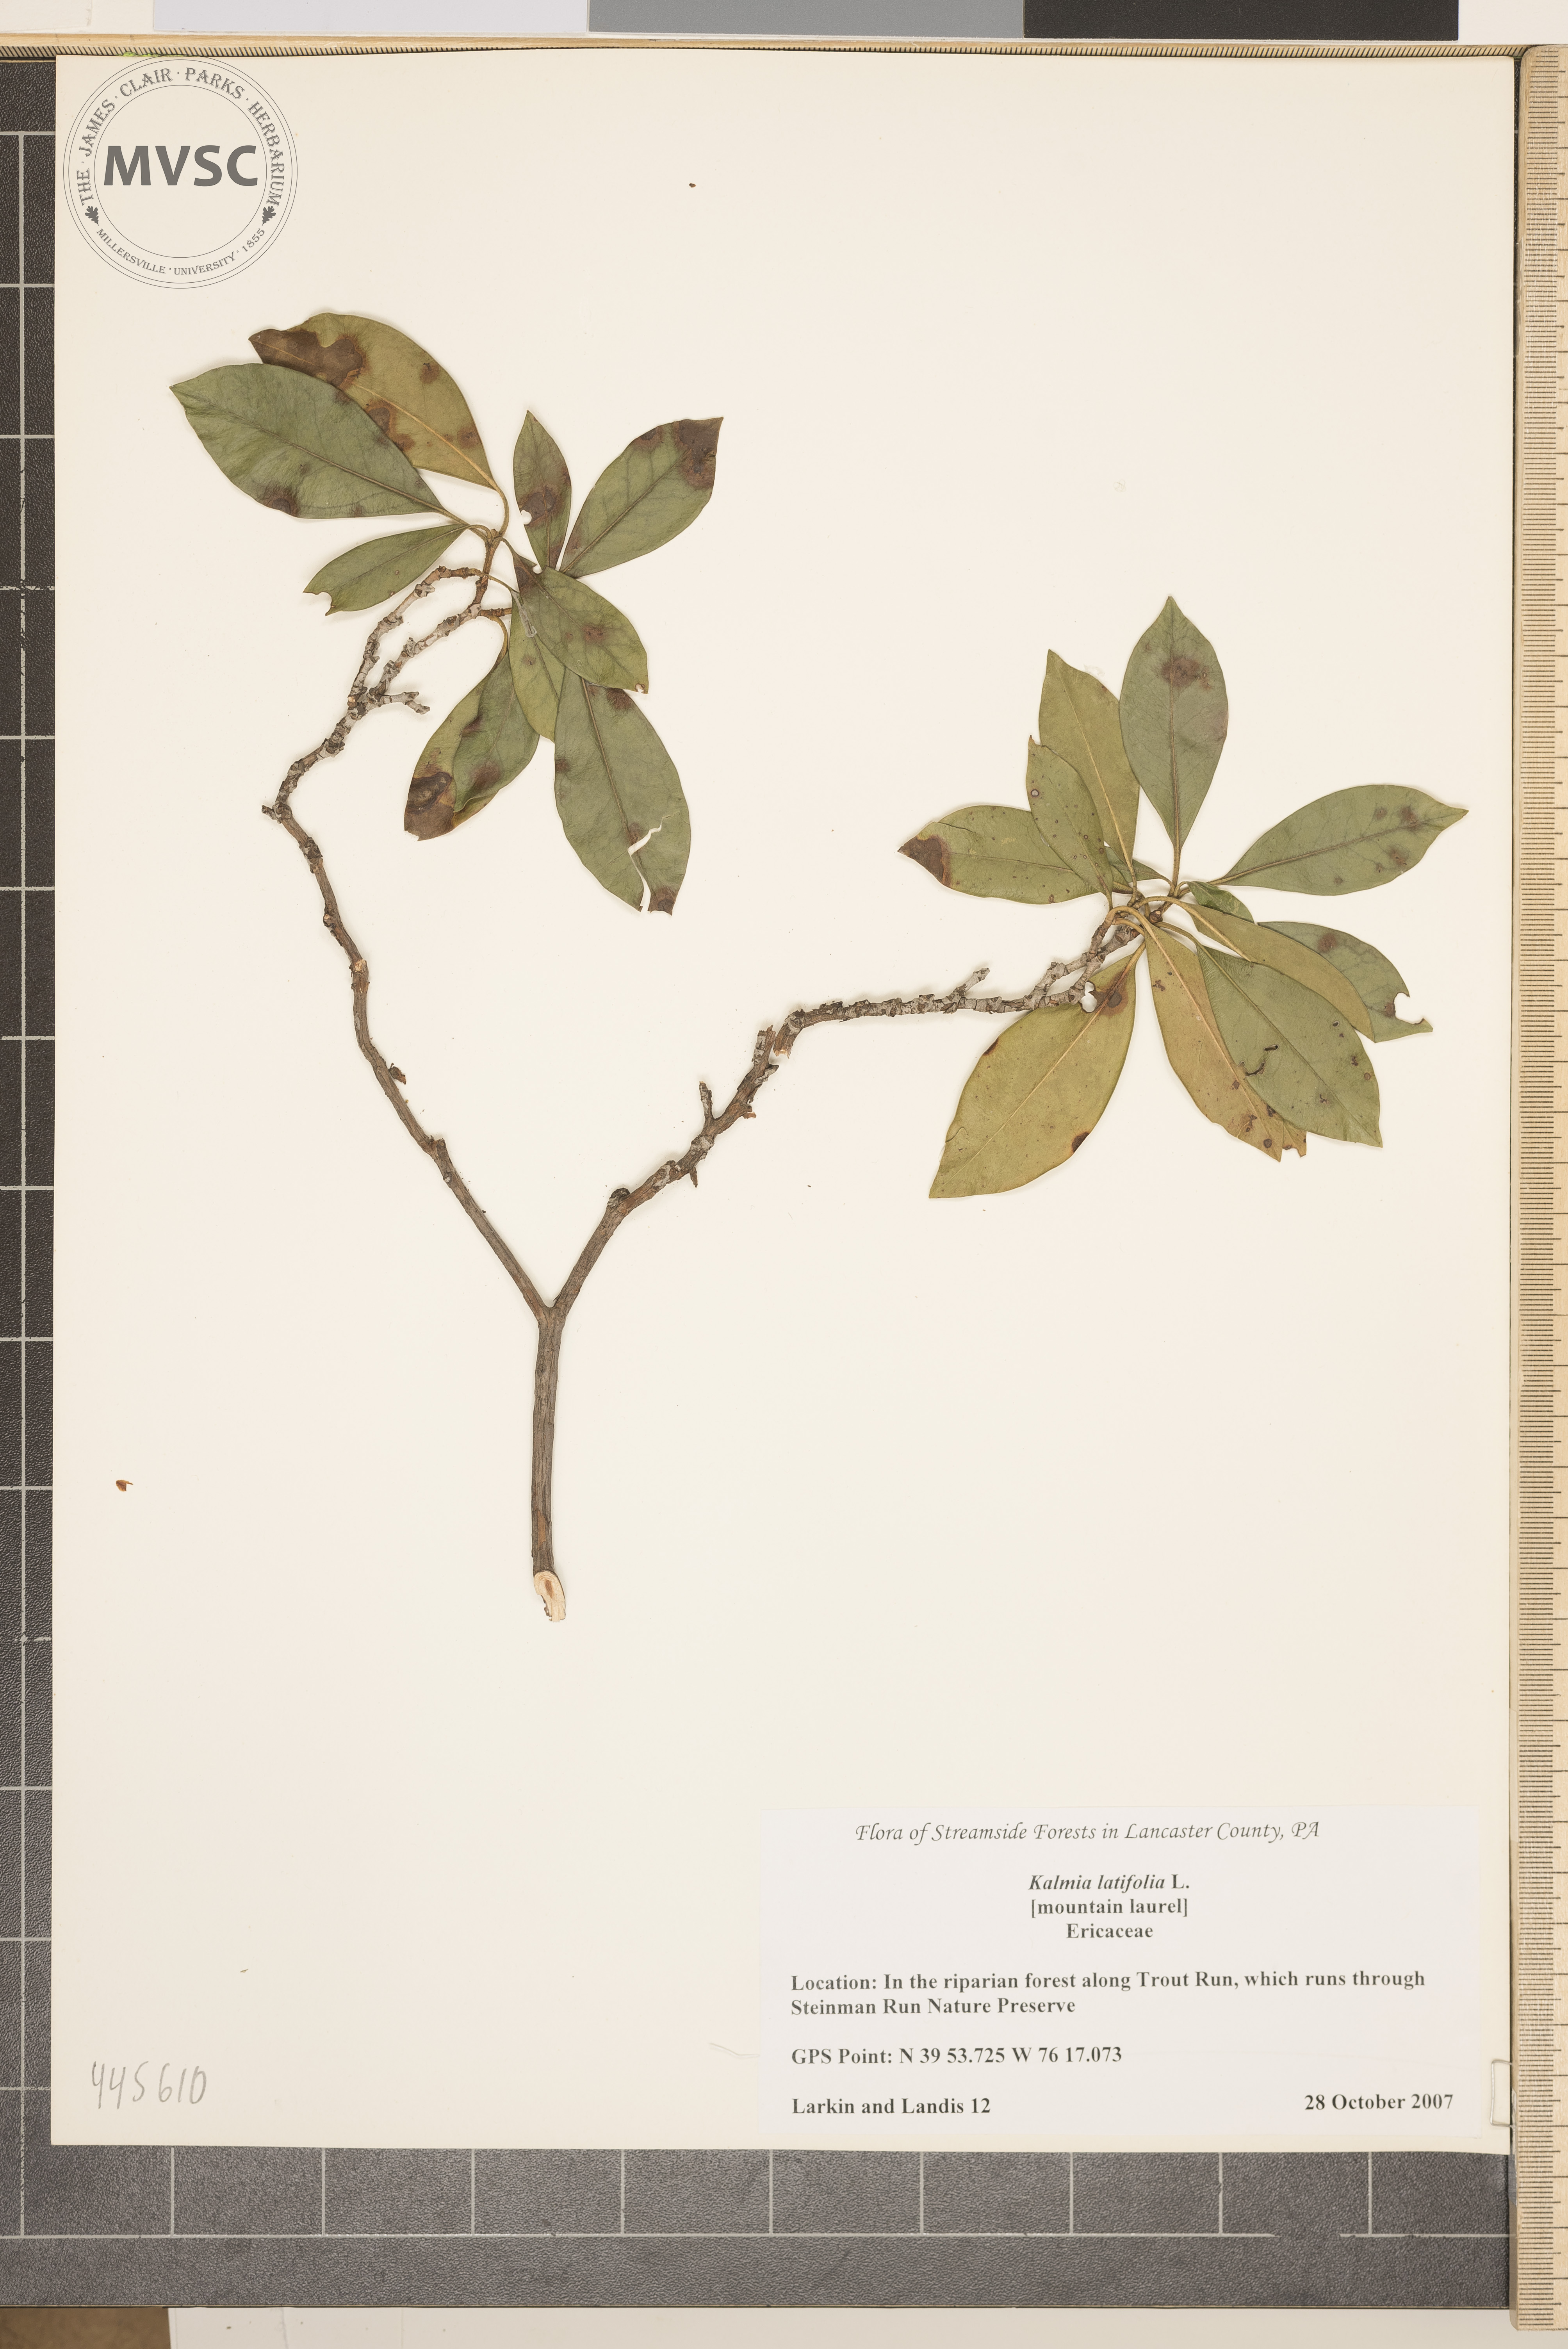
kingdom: Plantae
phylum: Tracheophyta
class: Magnoliopsida
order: Ericales
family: Ericaceae
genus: Kalmia
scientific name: Kalmia latifolia
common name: Mountain Laurel
